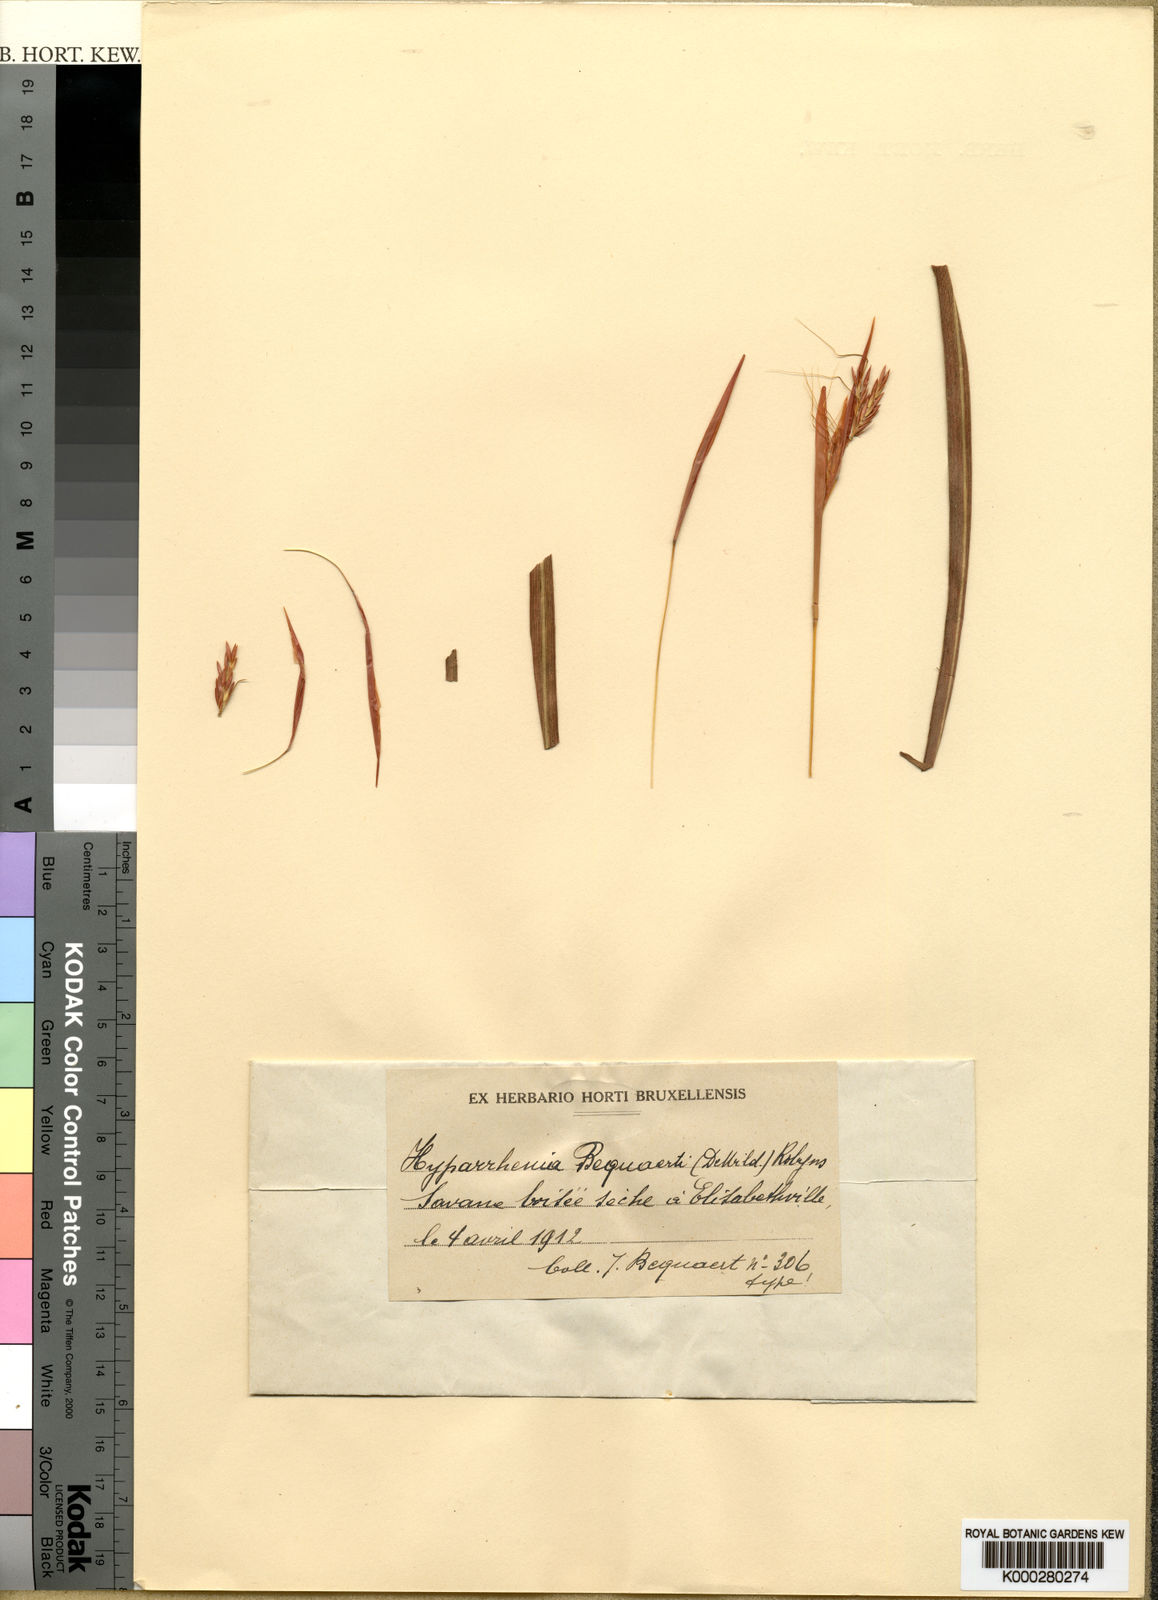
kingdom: Plantae
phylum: Tracheophyta
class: Liliopsida
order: Poales
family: Poaceae
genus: Hyparrhenia
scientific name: Hyparrhenia gossweileri
